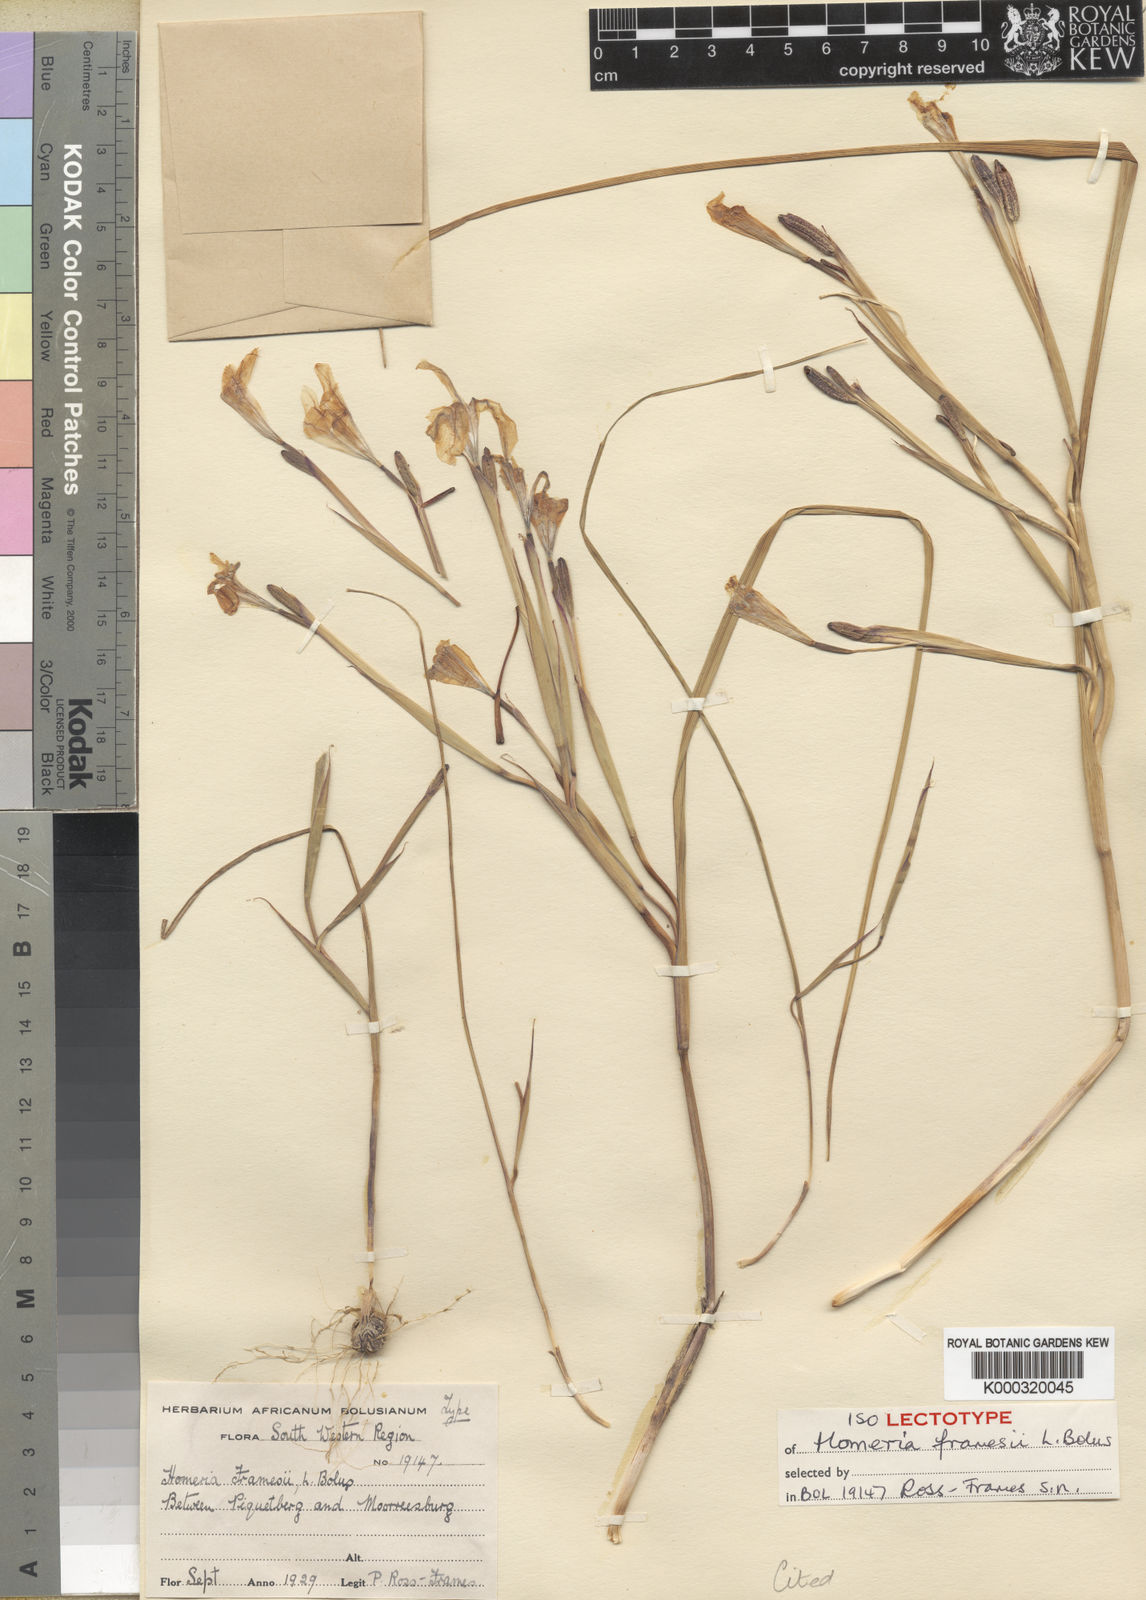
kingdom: Plantae
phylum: Tracheophyta
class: Liliopsida
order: Asparagales
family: Iridaceae
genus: Moraea
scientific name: Moraea minor
